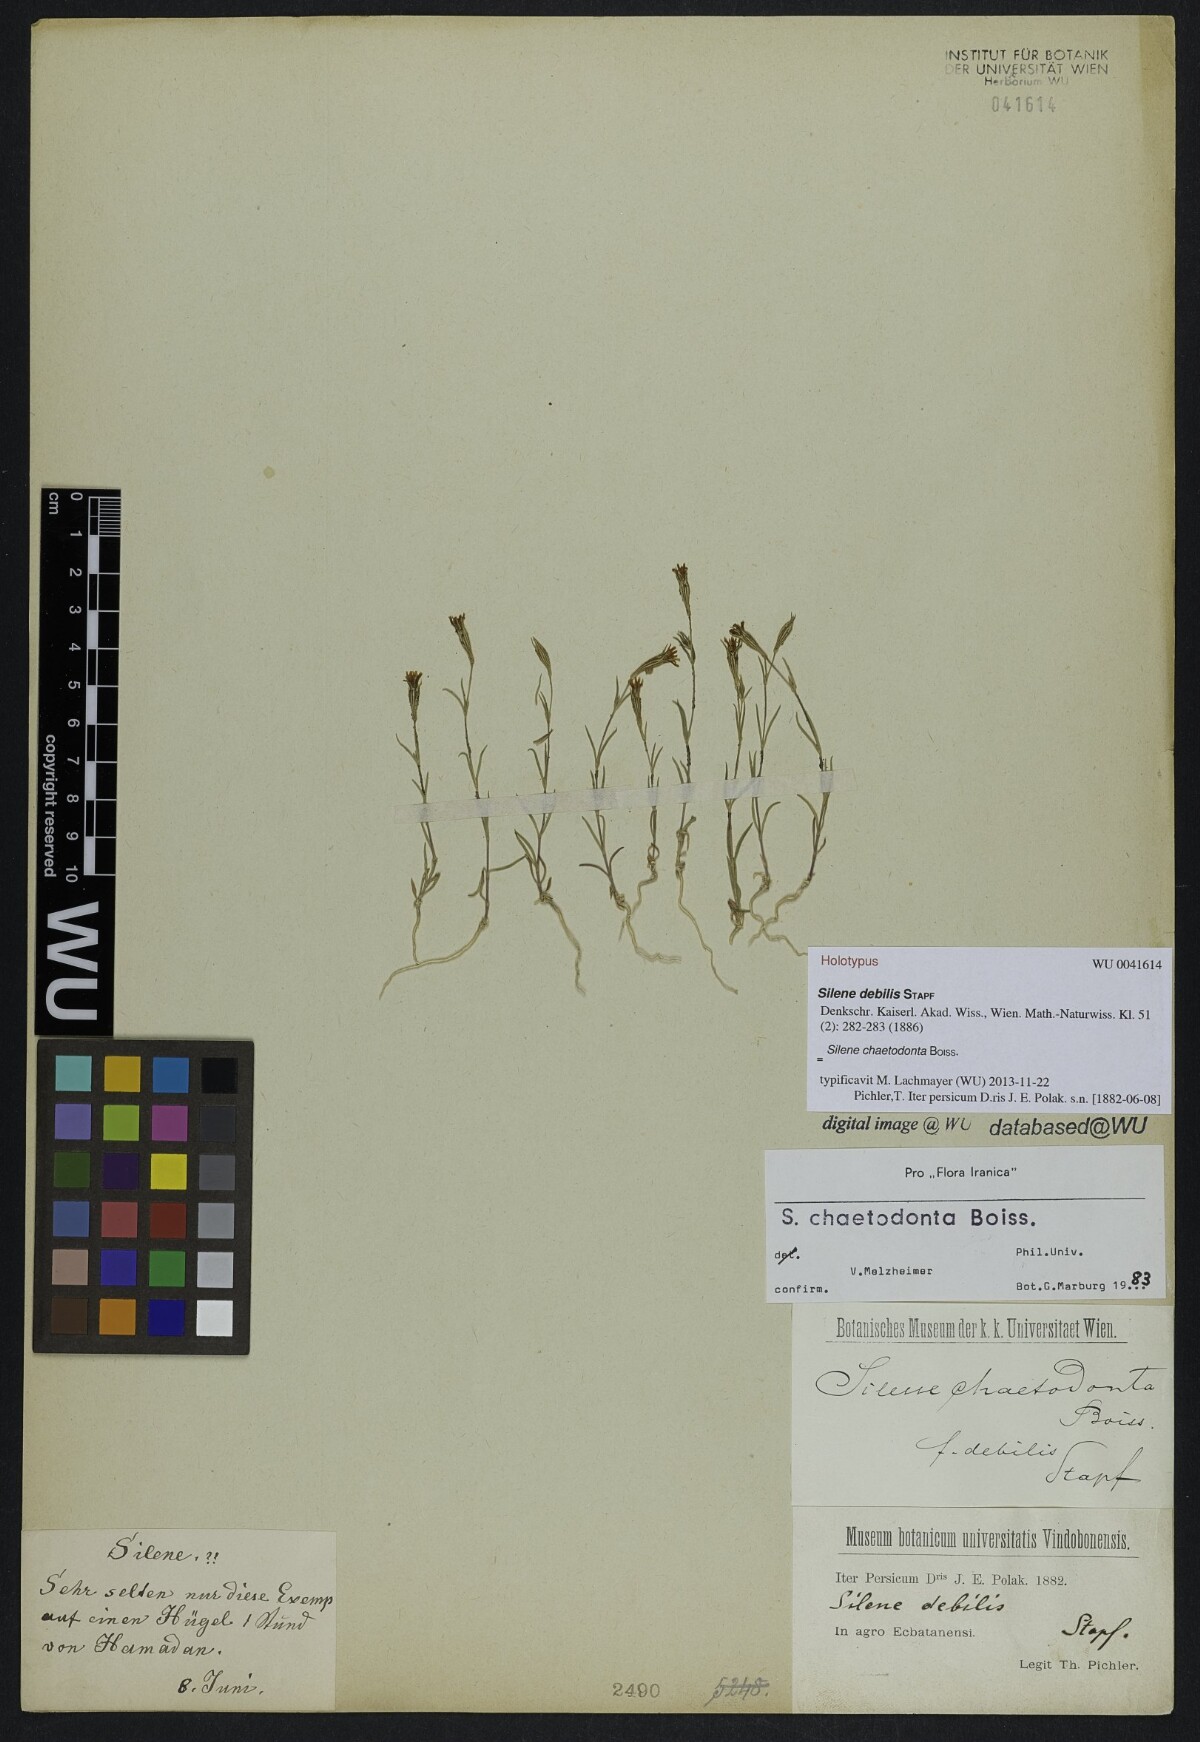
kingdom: Plantae
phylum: Tracheophyta
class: Magnoliopsida
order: Caryophyllales
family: Caryophyllaceae
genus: Silene
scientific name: Silene chaetodonta
